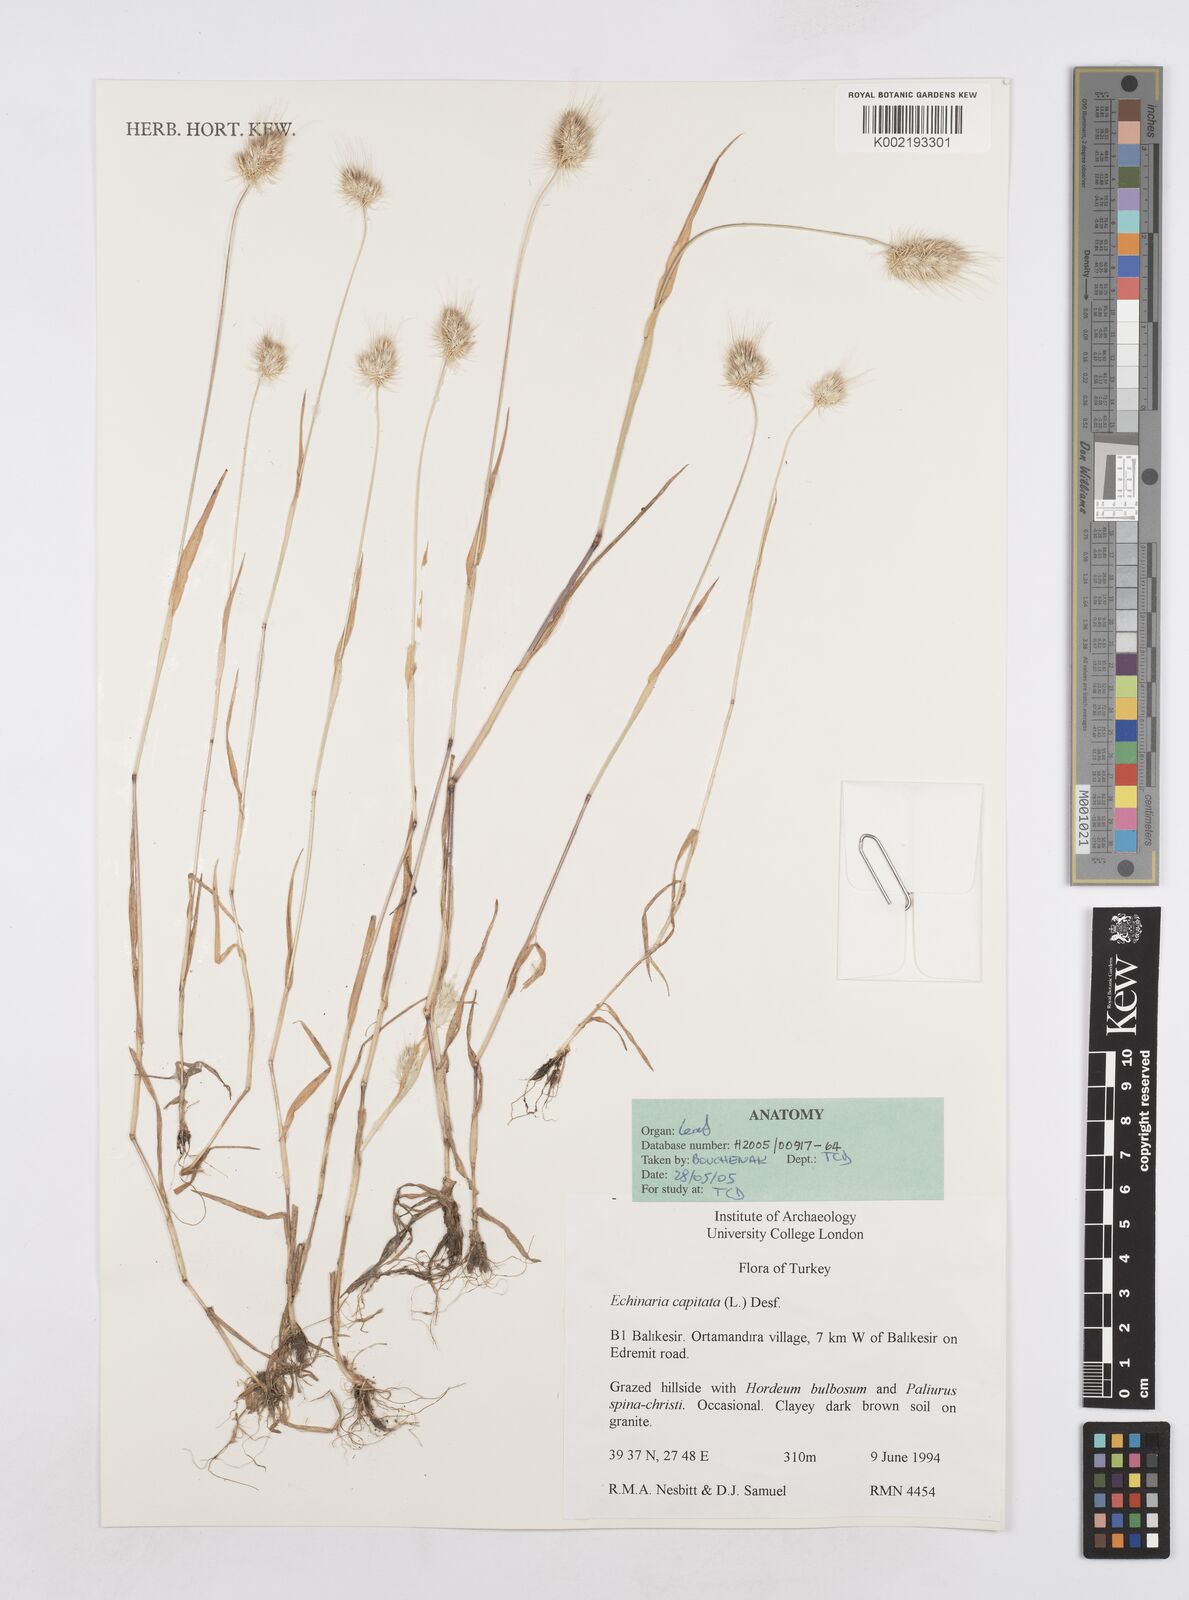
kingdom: Plantae
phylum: Tracheophyta
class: Liliopsida
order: Poales
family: Poaceae
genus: Echinaria
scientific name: Echinaria capitata
